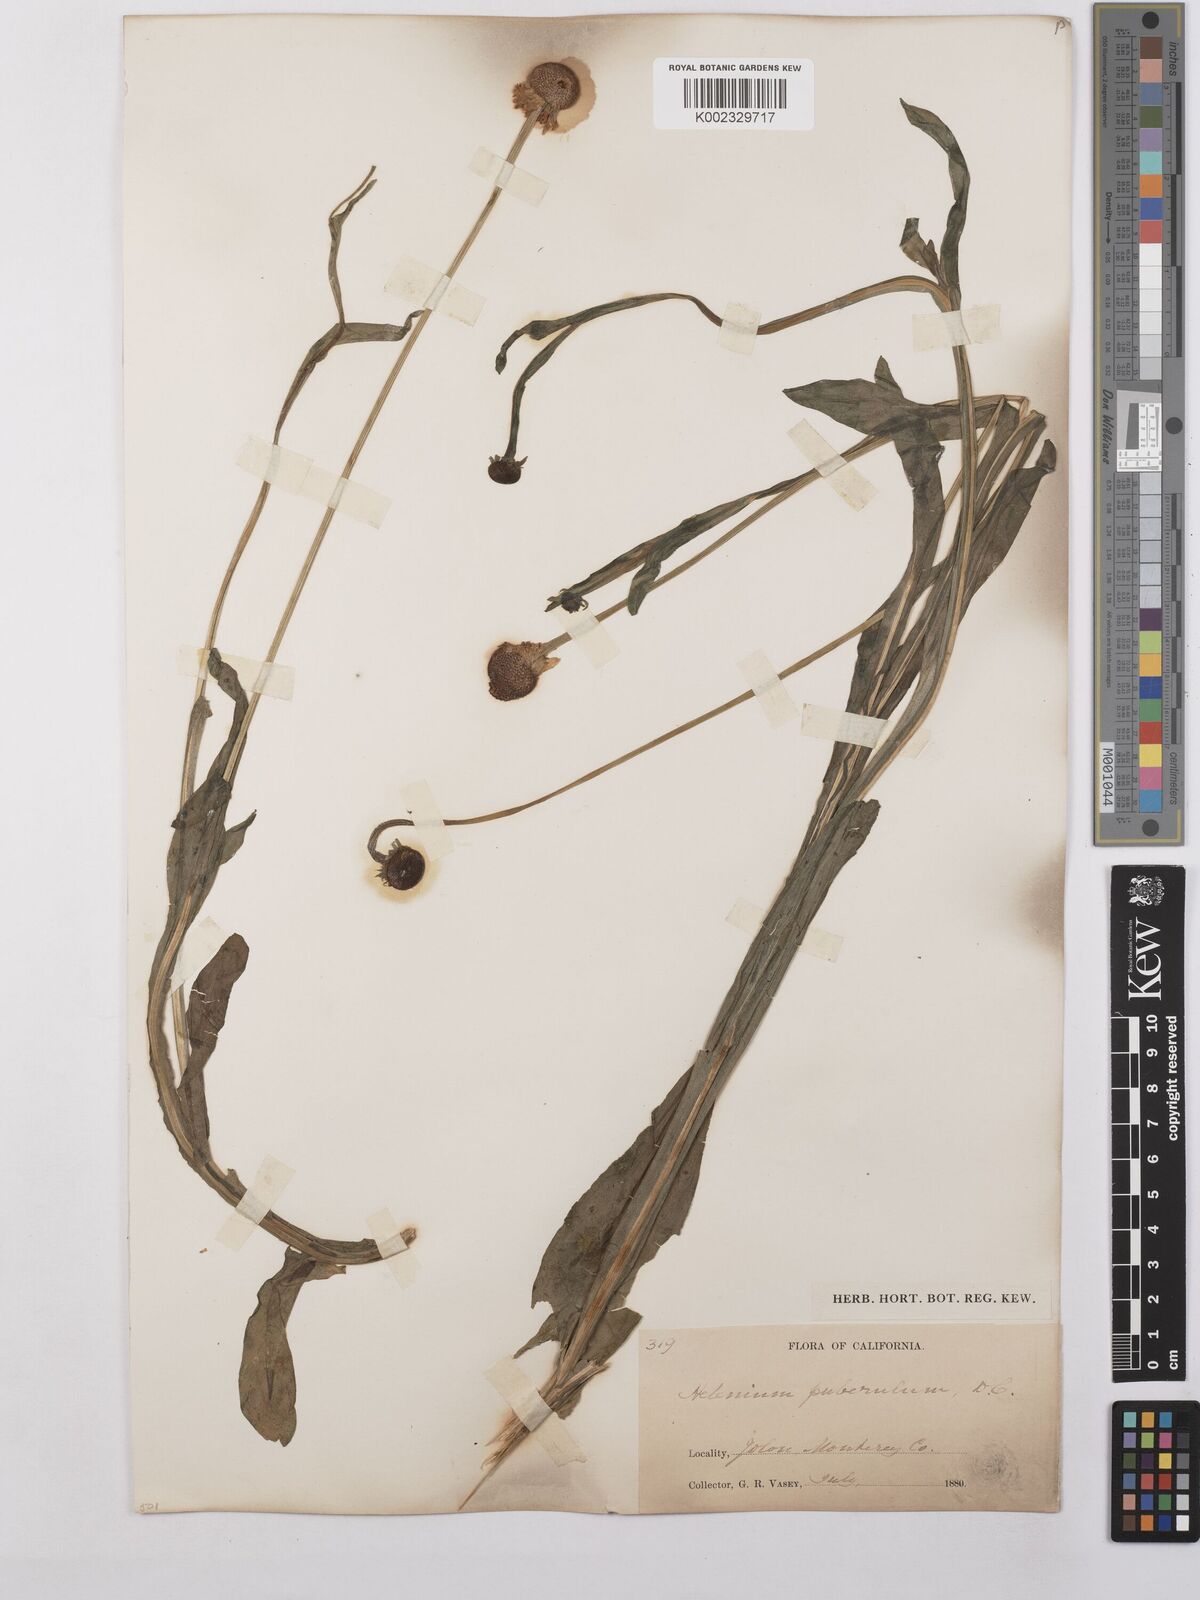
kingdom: Plantae
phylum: Tracheophyta
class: Magnoliopsida
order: Asterales
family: Asteraceae
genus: Helenium
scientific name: Helenium puberulum
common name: Sneezewort
